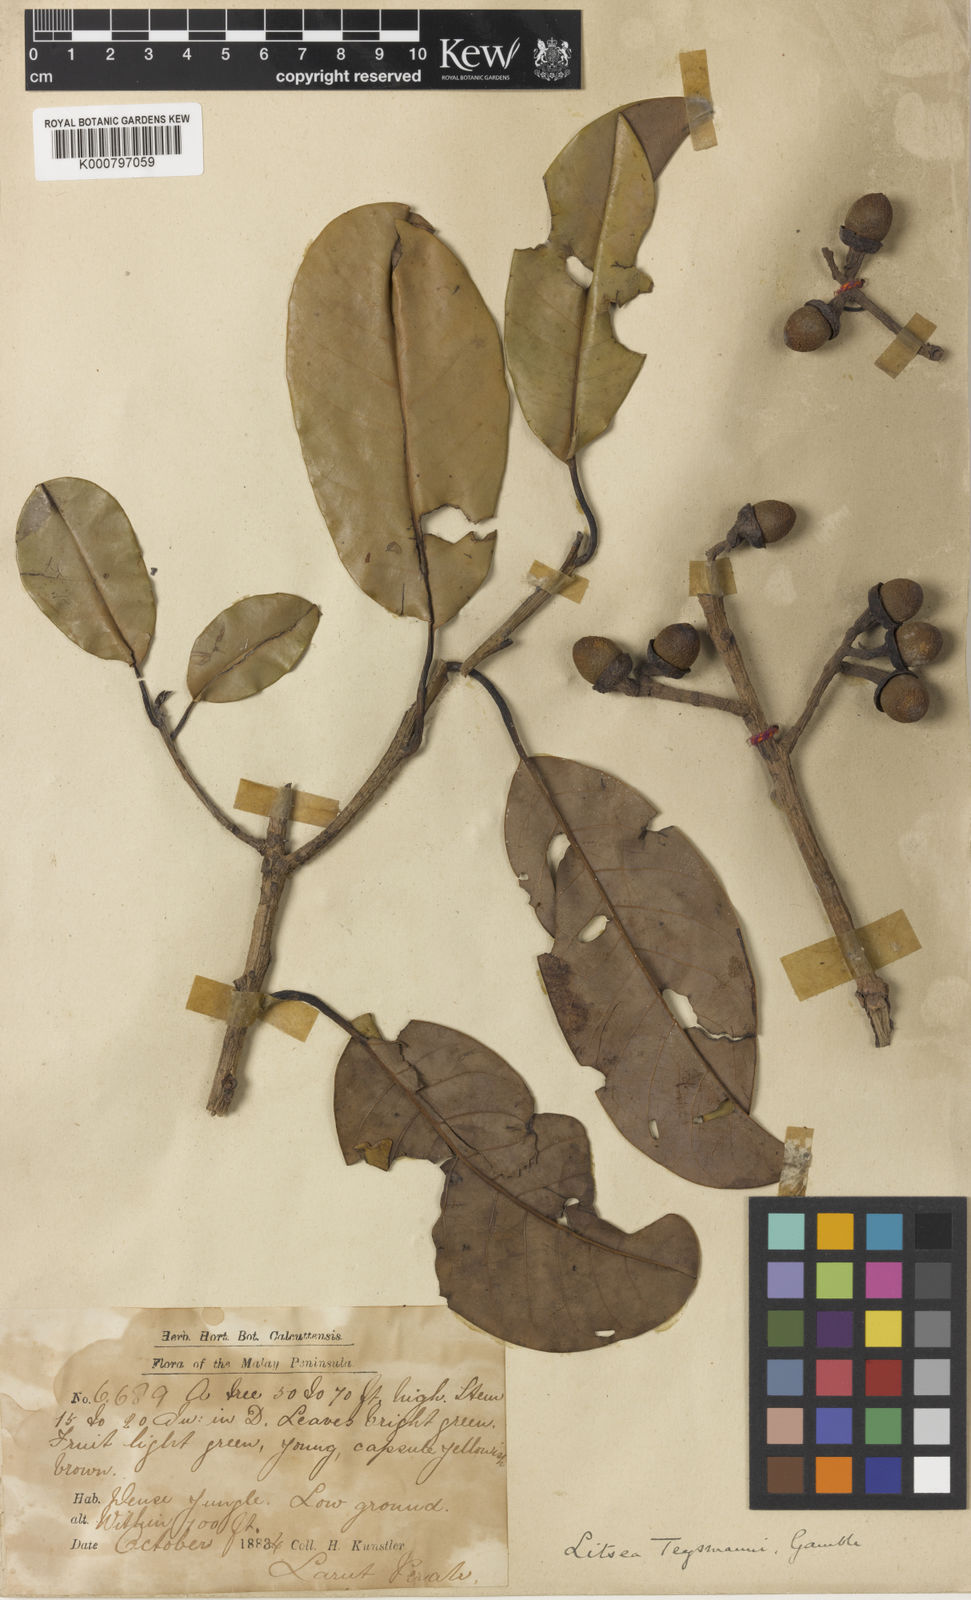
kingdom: Plantae
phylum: Tracheophyta
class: Magnoliopsida
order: Laurales
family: Lauraceae
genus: Litsea
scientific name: Litsea machilifolia
